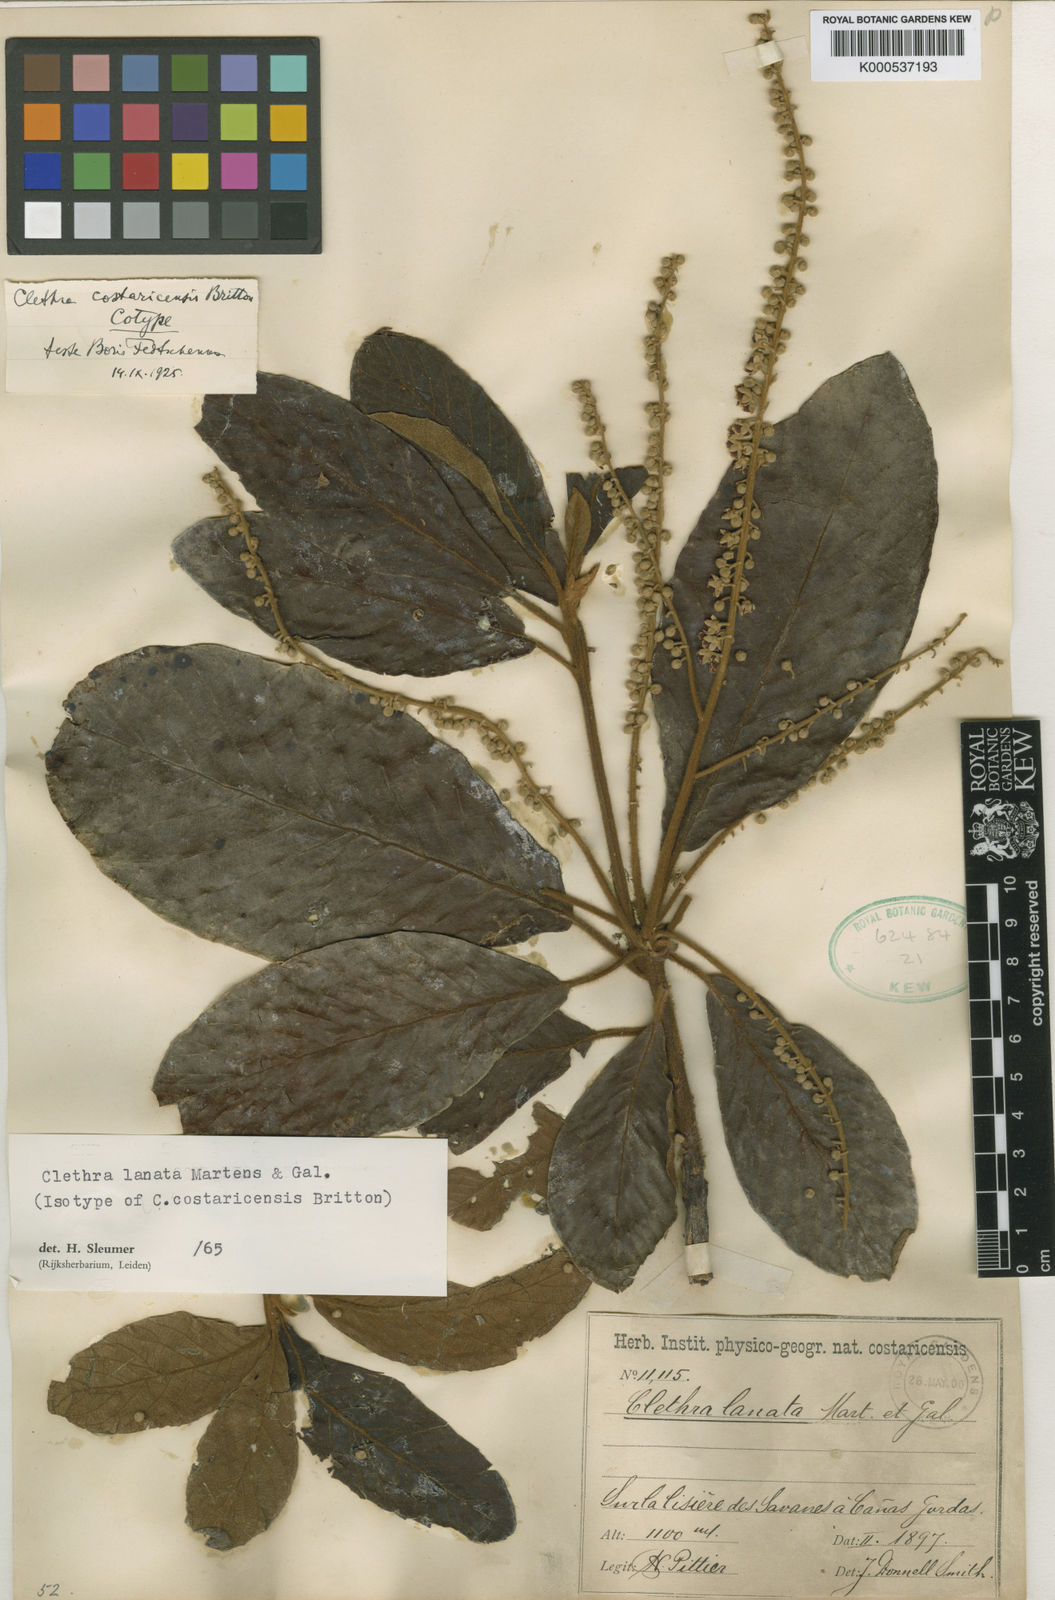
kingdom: Plantae
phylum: Tracheophyta
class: Magnoliopsida
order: Ericales
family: Clethraceae
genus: Clethra
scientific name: Clethra lanata
